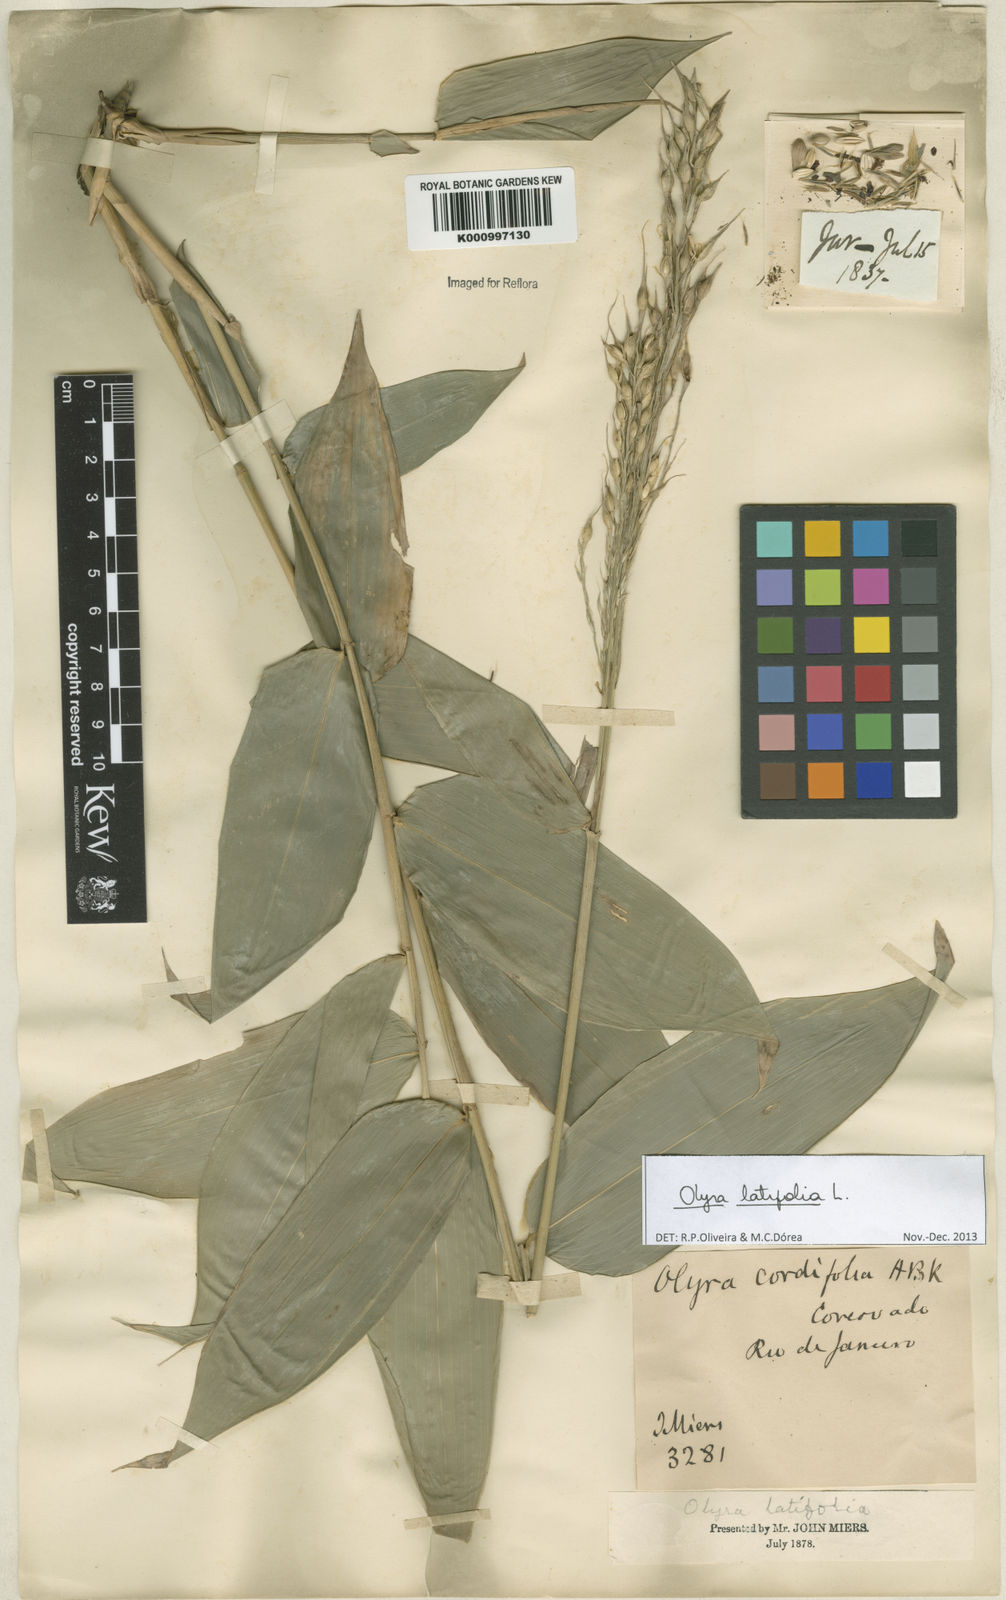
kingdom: Plantae
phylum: Tracheophyta
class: Liliopsida
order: Poales
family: Poaceae
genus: Olyra
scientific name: Olyra latifolia
